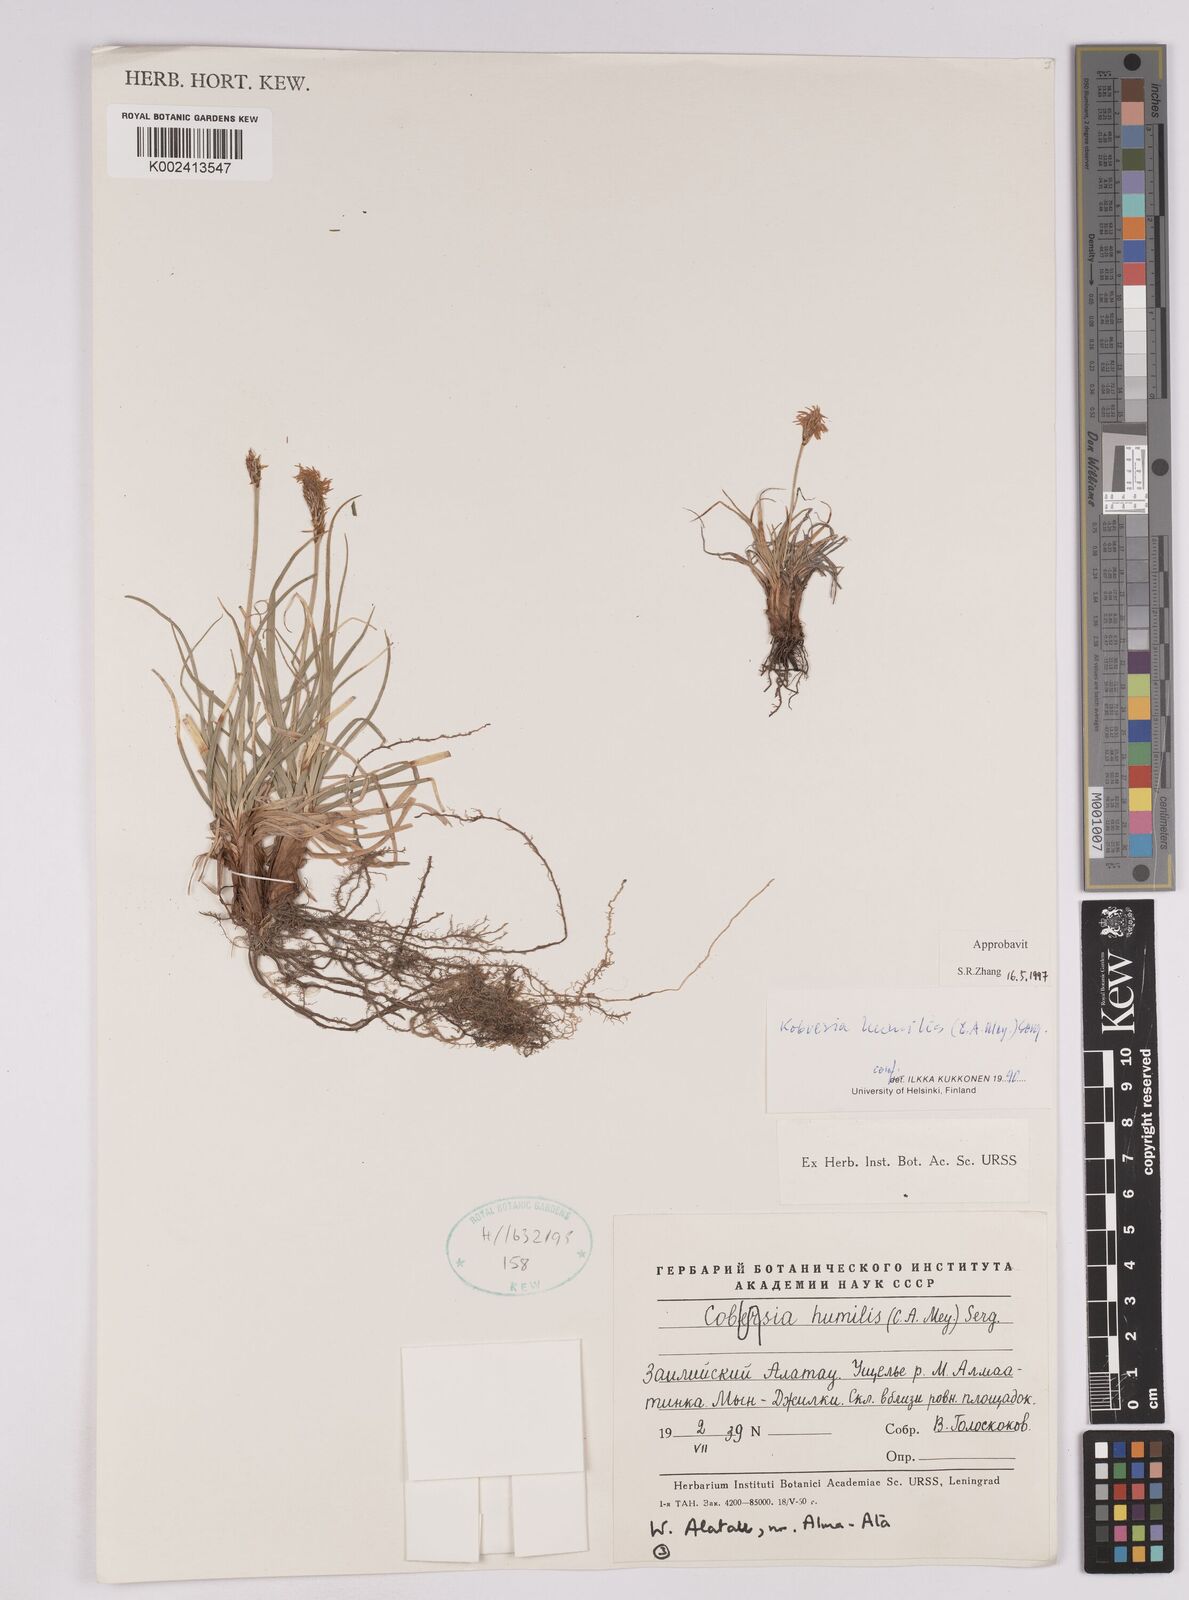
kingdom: Plantae
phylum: Tracheophyta
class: Liliopsida
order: Poales
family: Cyperaceae
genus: Carex
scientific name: Carex alatauensis
